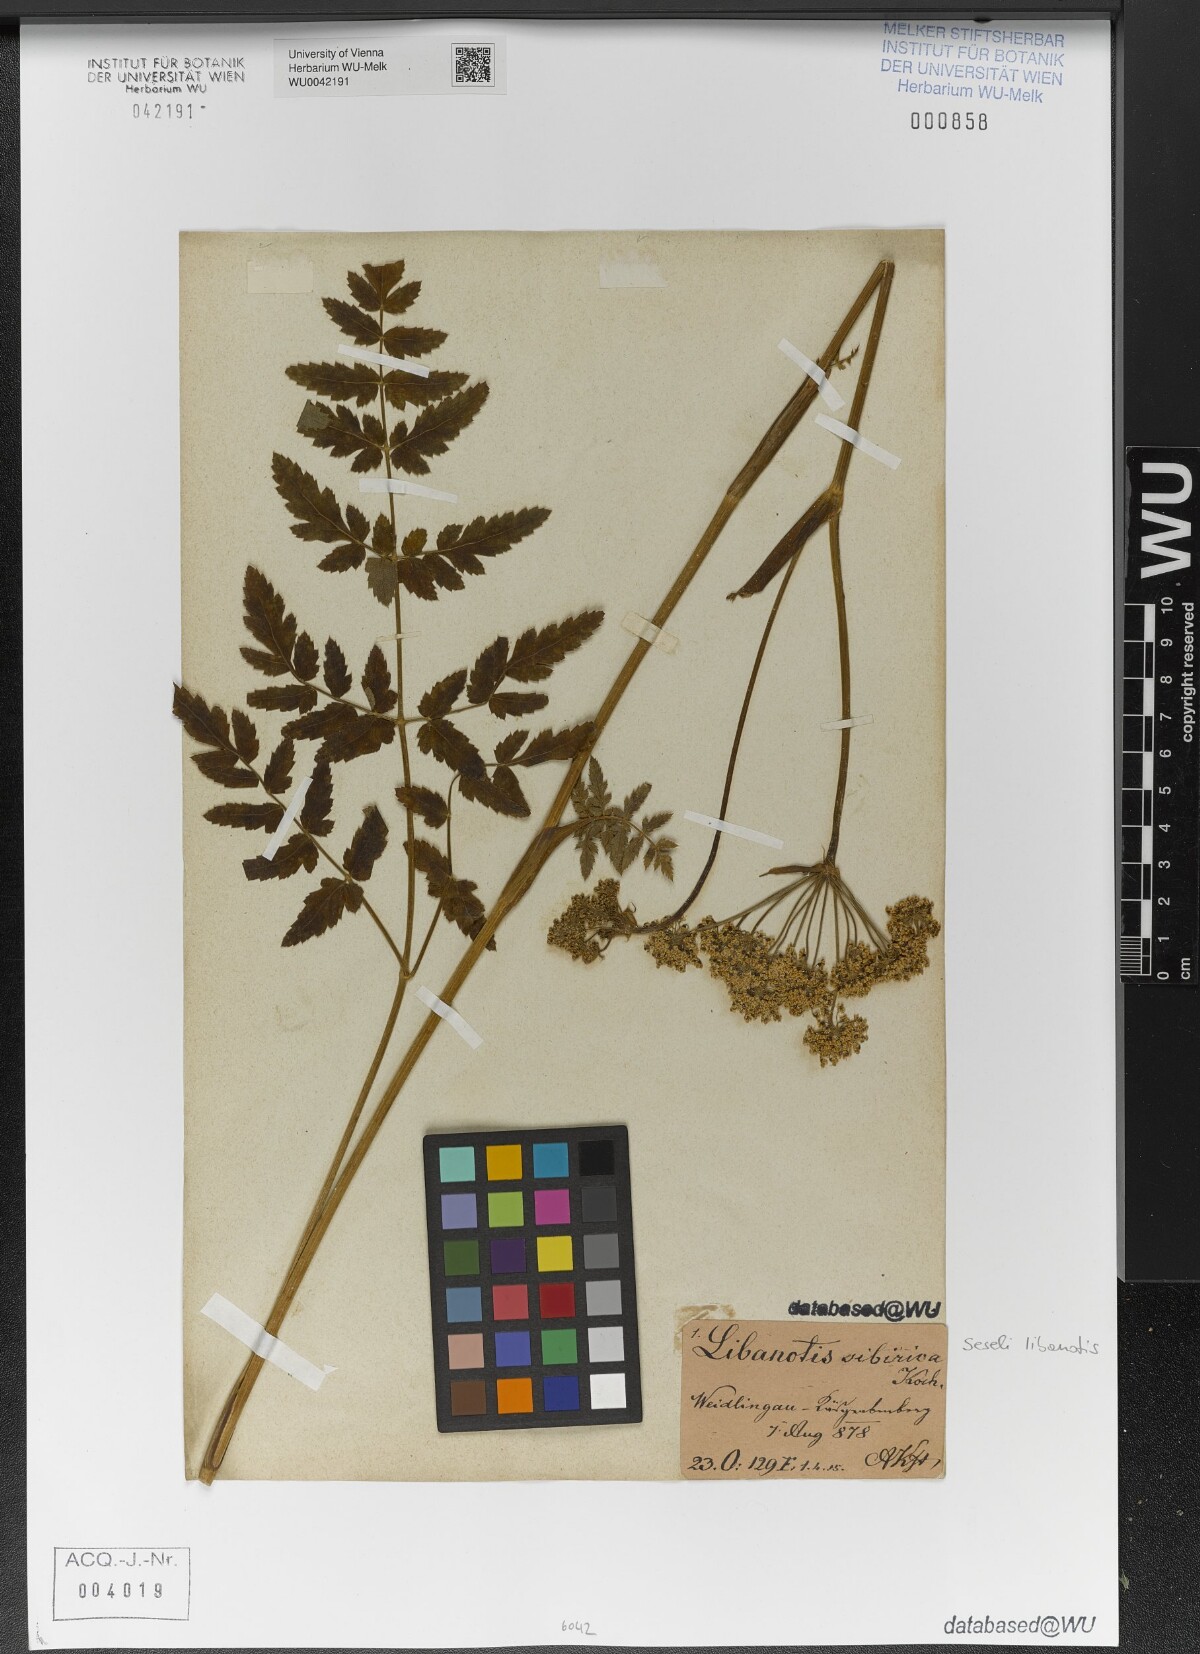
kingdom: Plantae
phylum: Tracheophyta
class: Magnoliopsida
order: Apiales
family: Apiaceae
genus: Seseli
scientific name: Seseli libanotis
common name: Mooncarrot
